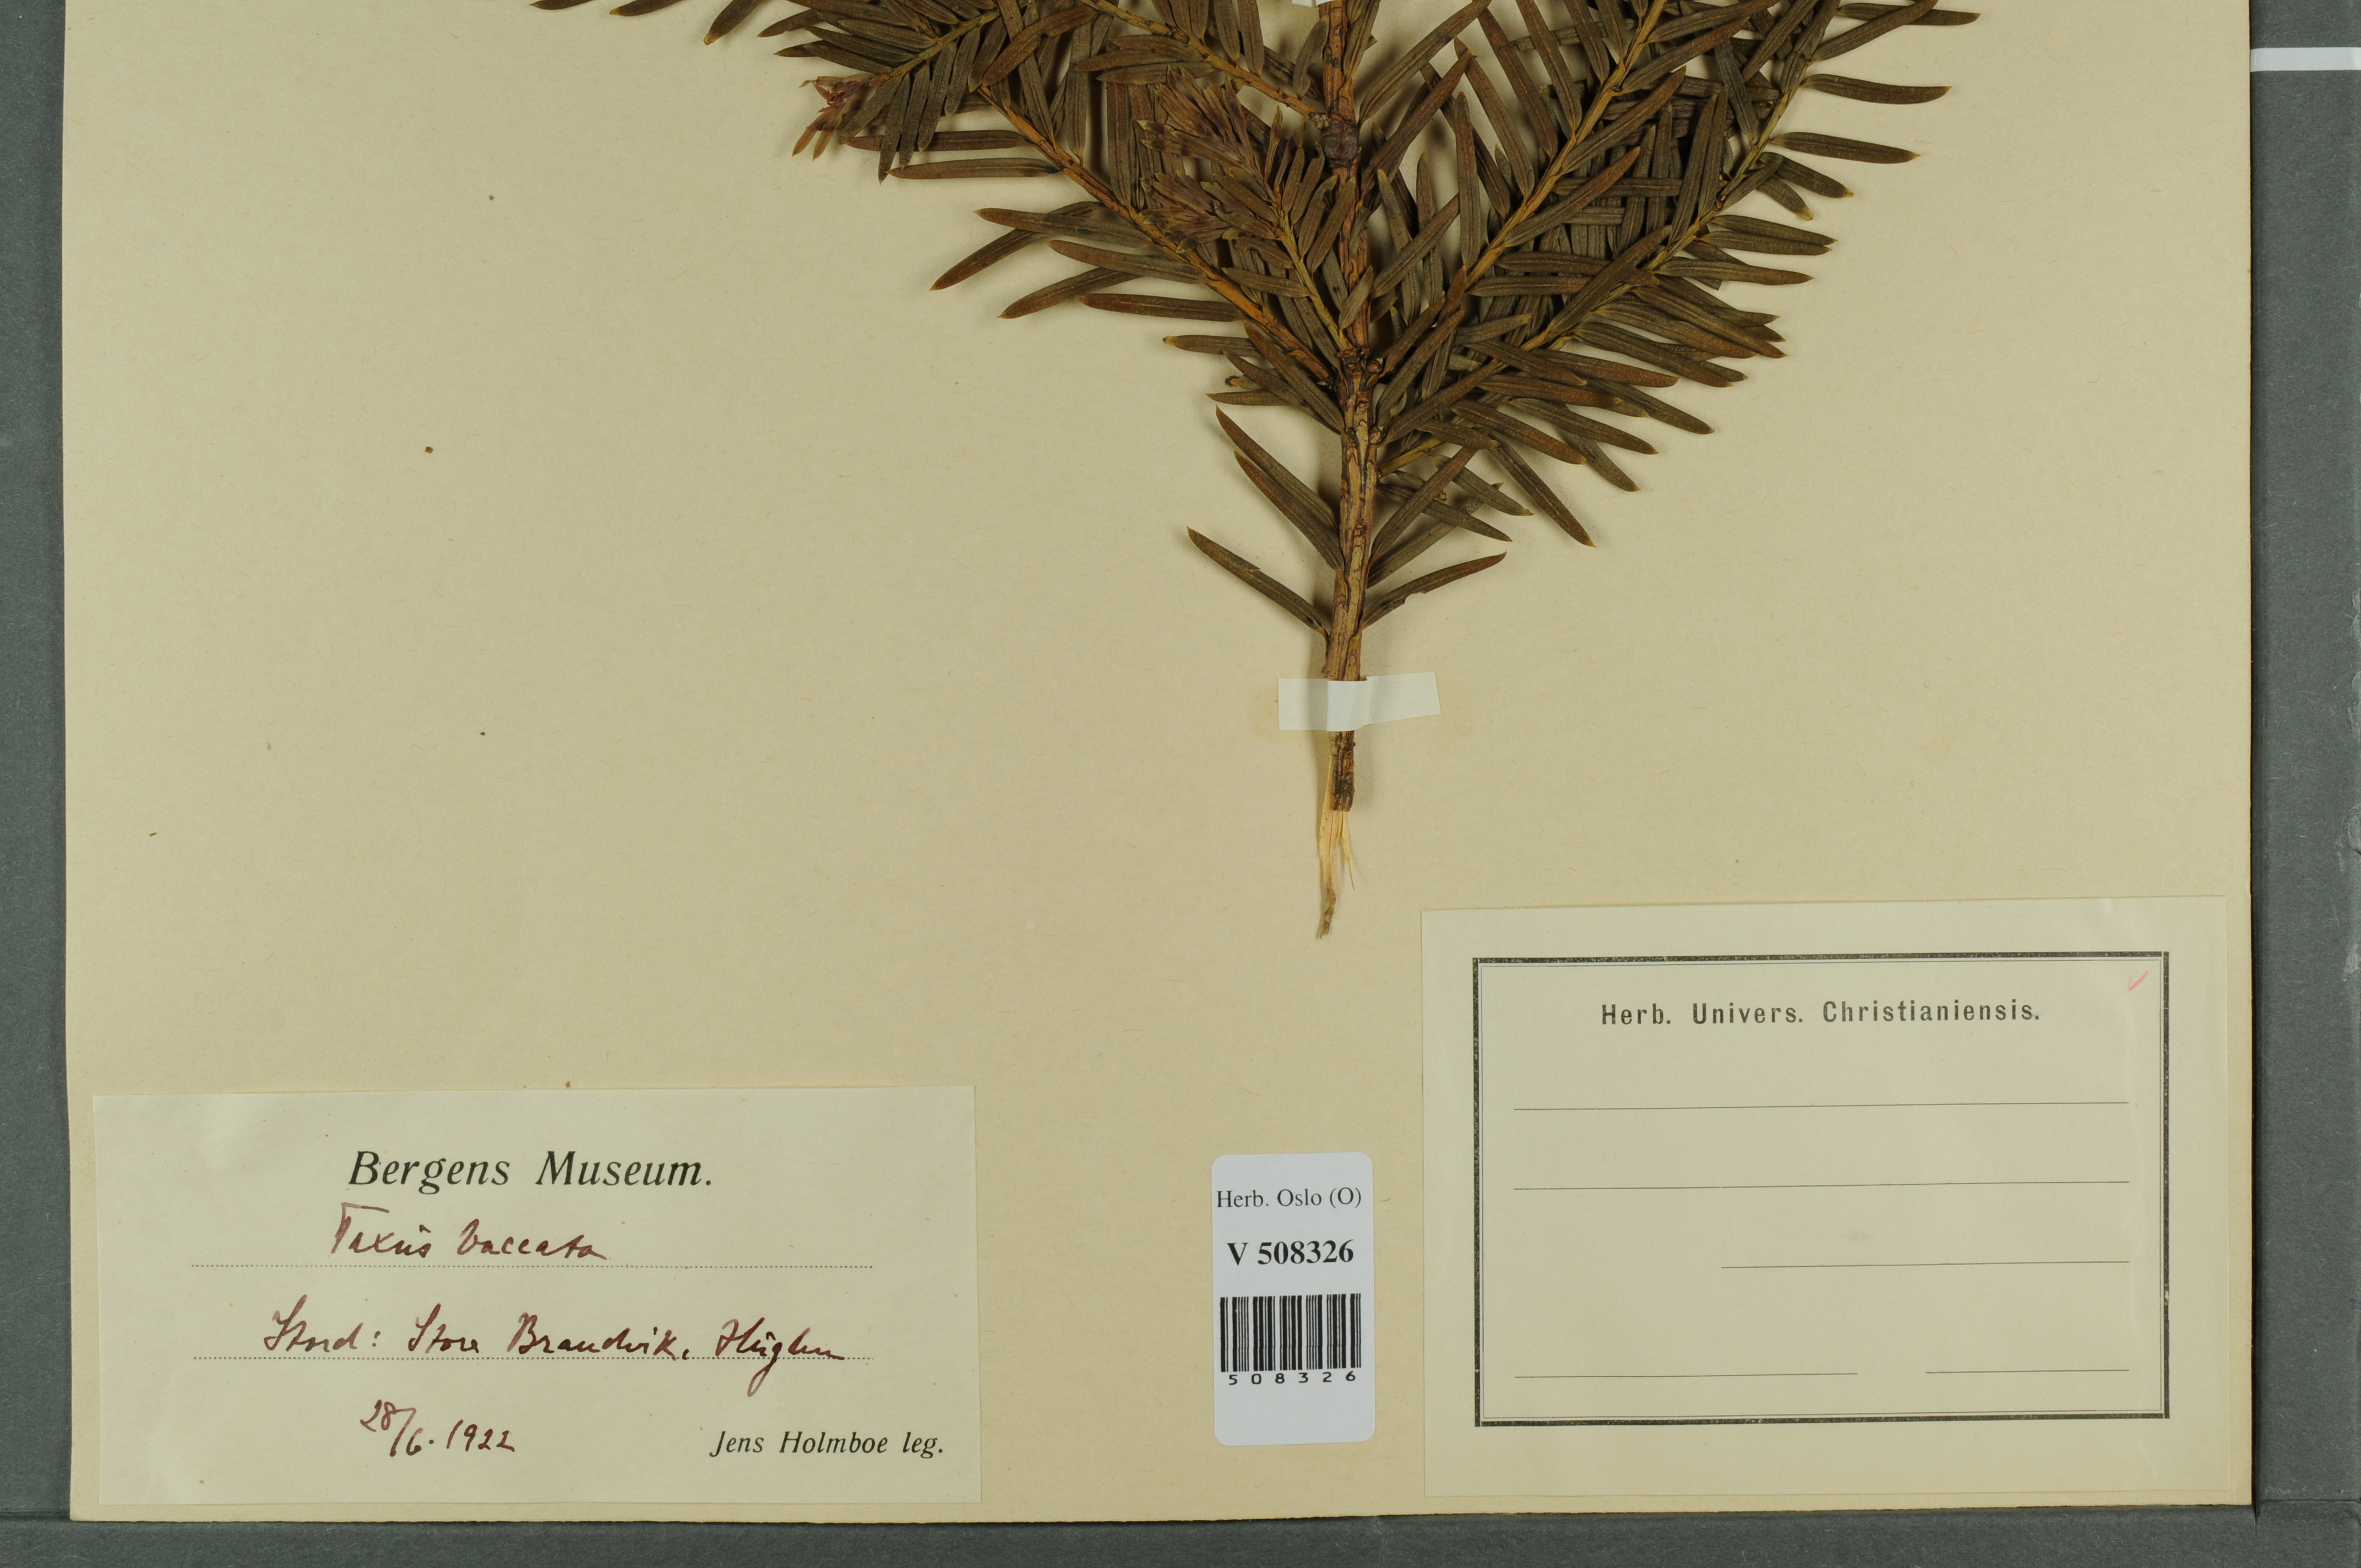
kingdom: Plantae
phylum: Tracheophyta
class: Pinopsida
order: Pinales
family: Taxaceae
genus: Taxus
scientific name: Taxus baccata
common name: Yew
